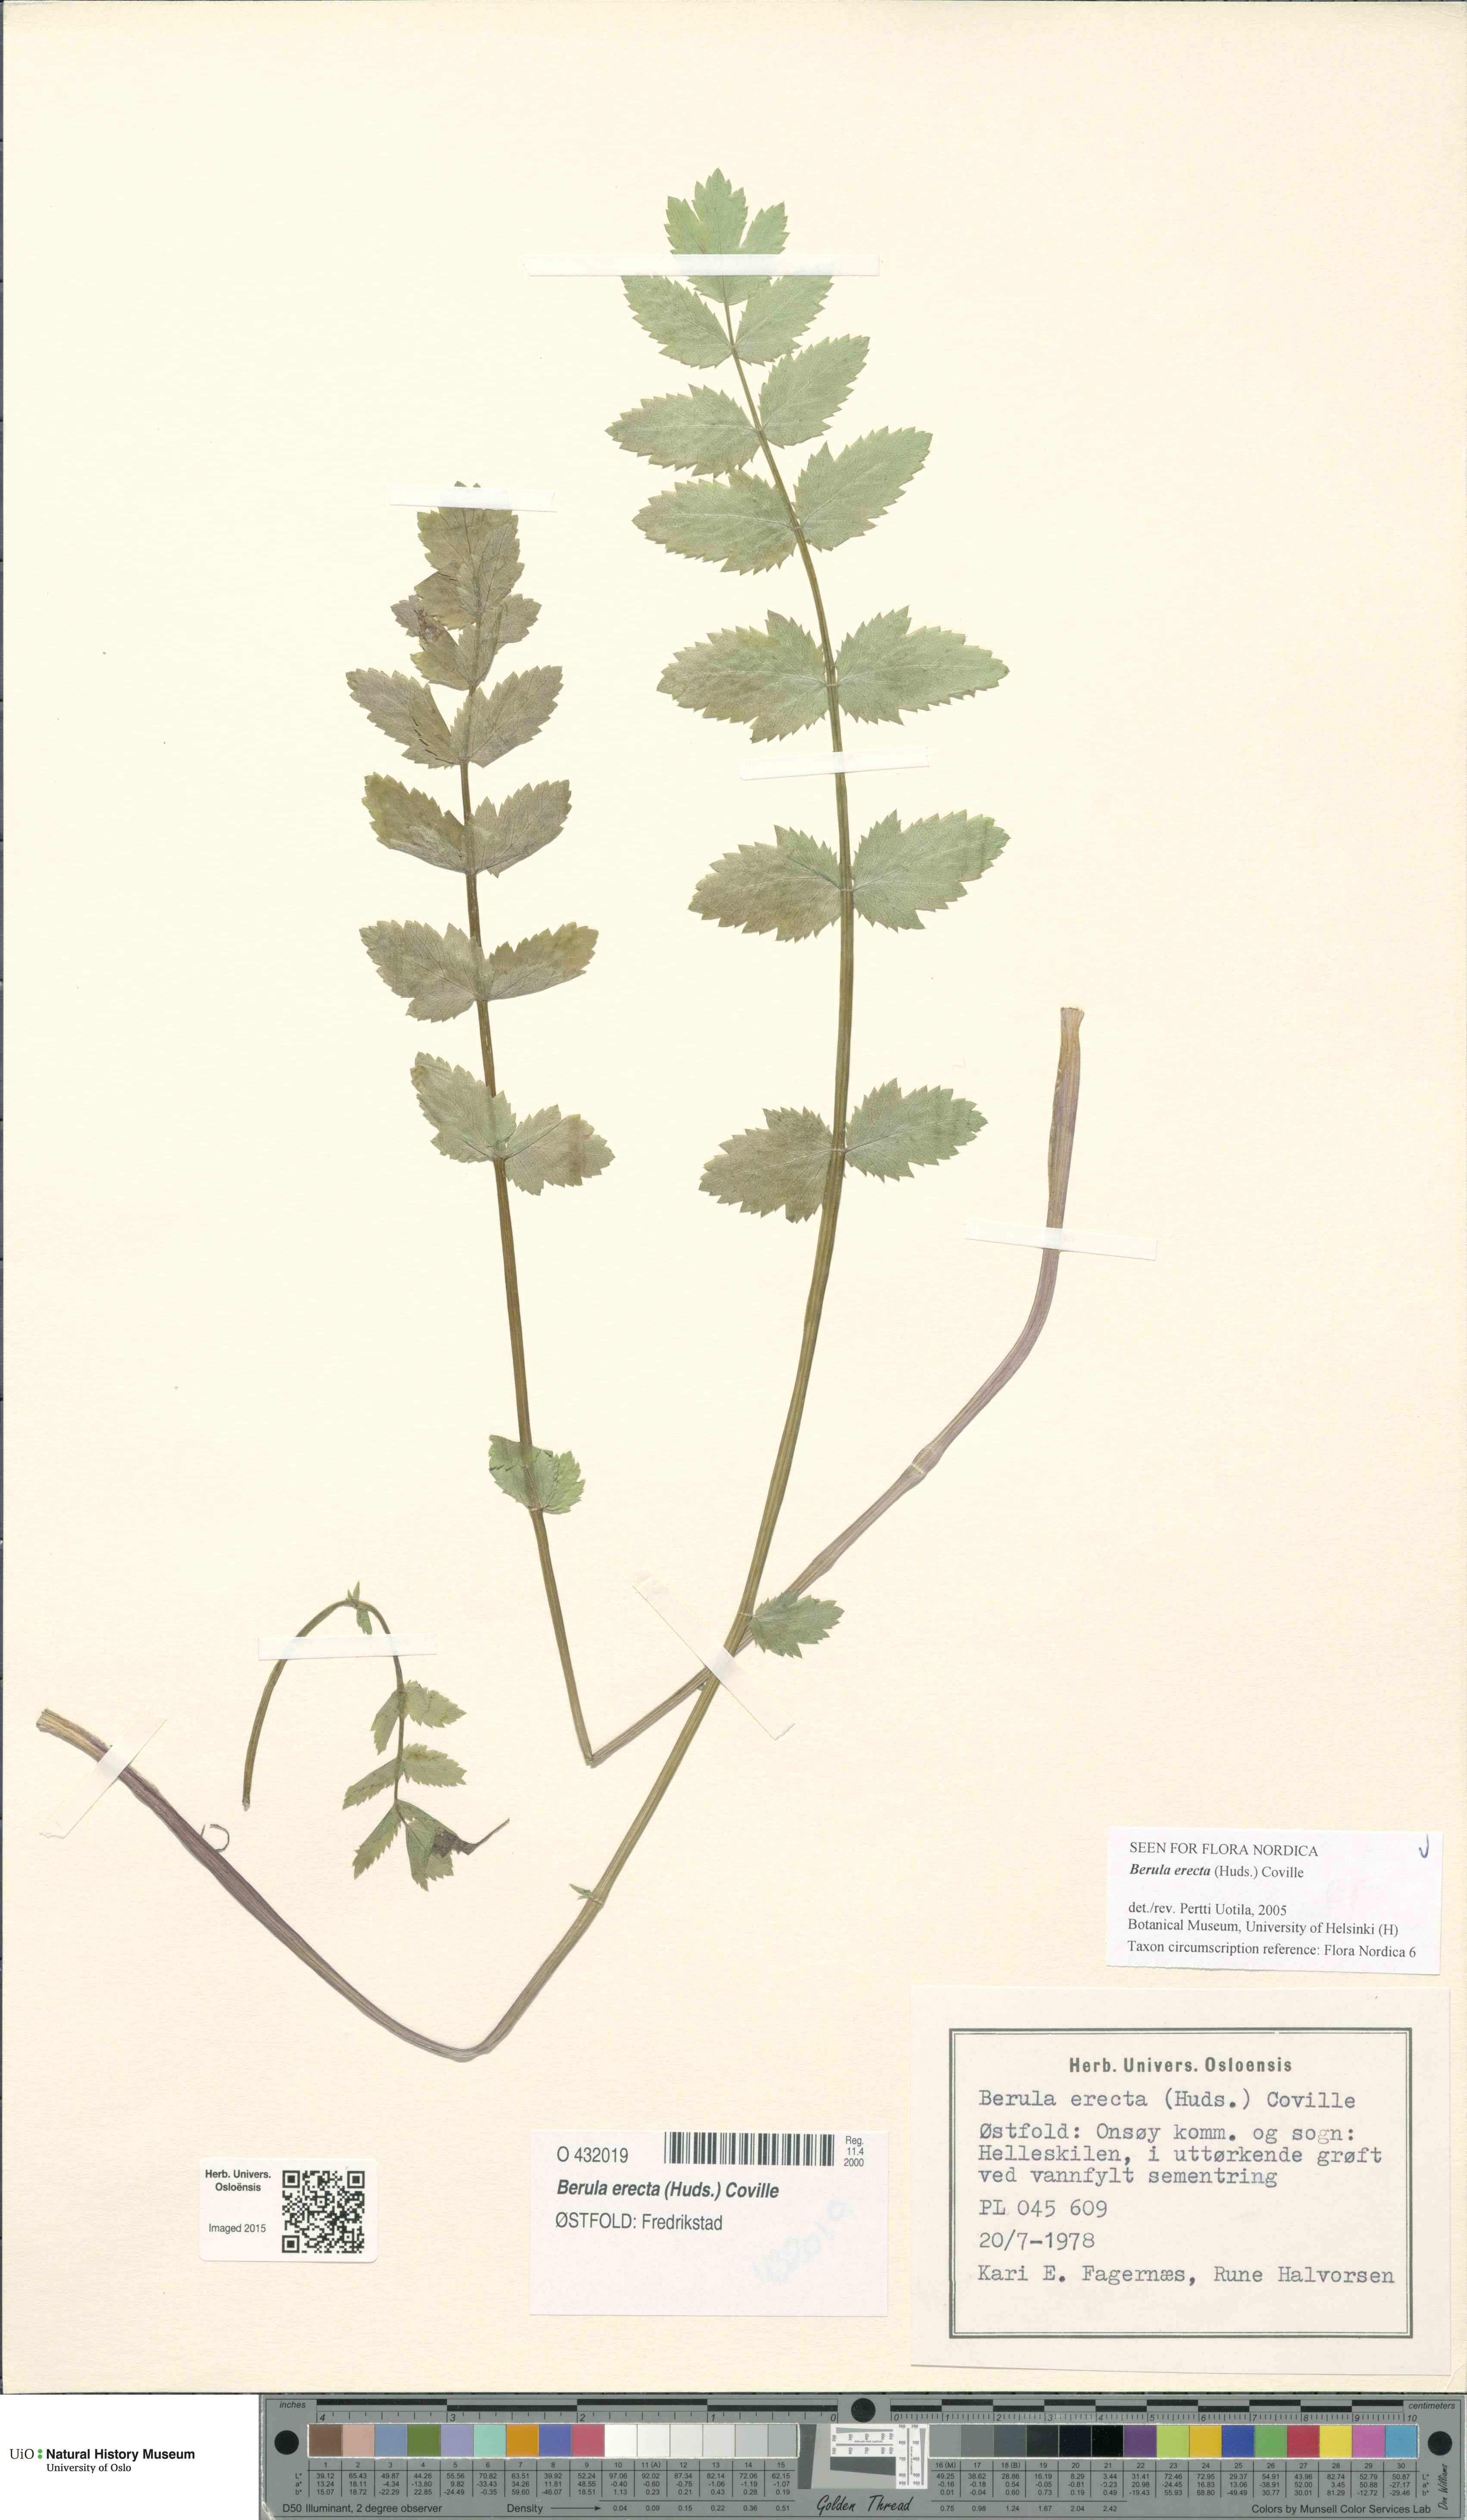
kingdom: Plantae
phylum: Tracheophyta
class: Magnoliopsida
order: Apiales
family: Apiaceae
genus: Berula
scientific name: Berula erecta
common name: Lesser water-parsnip
